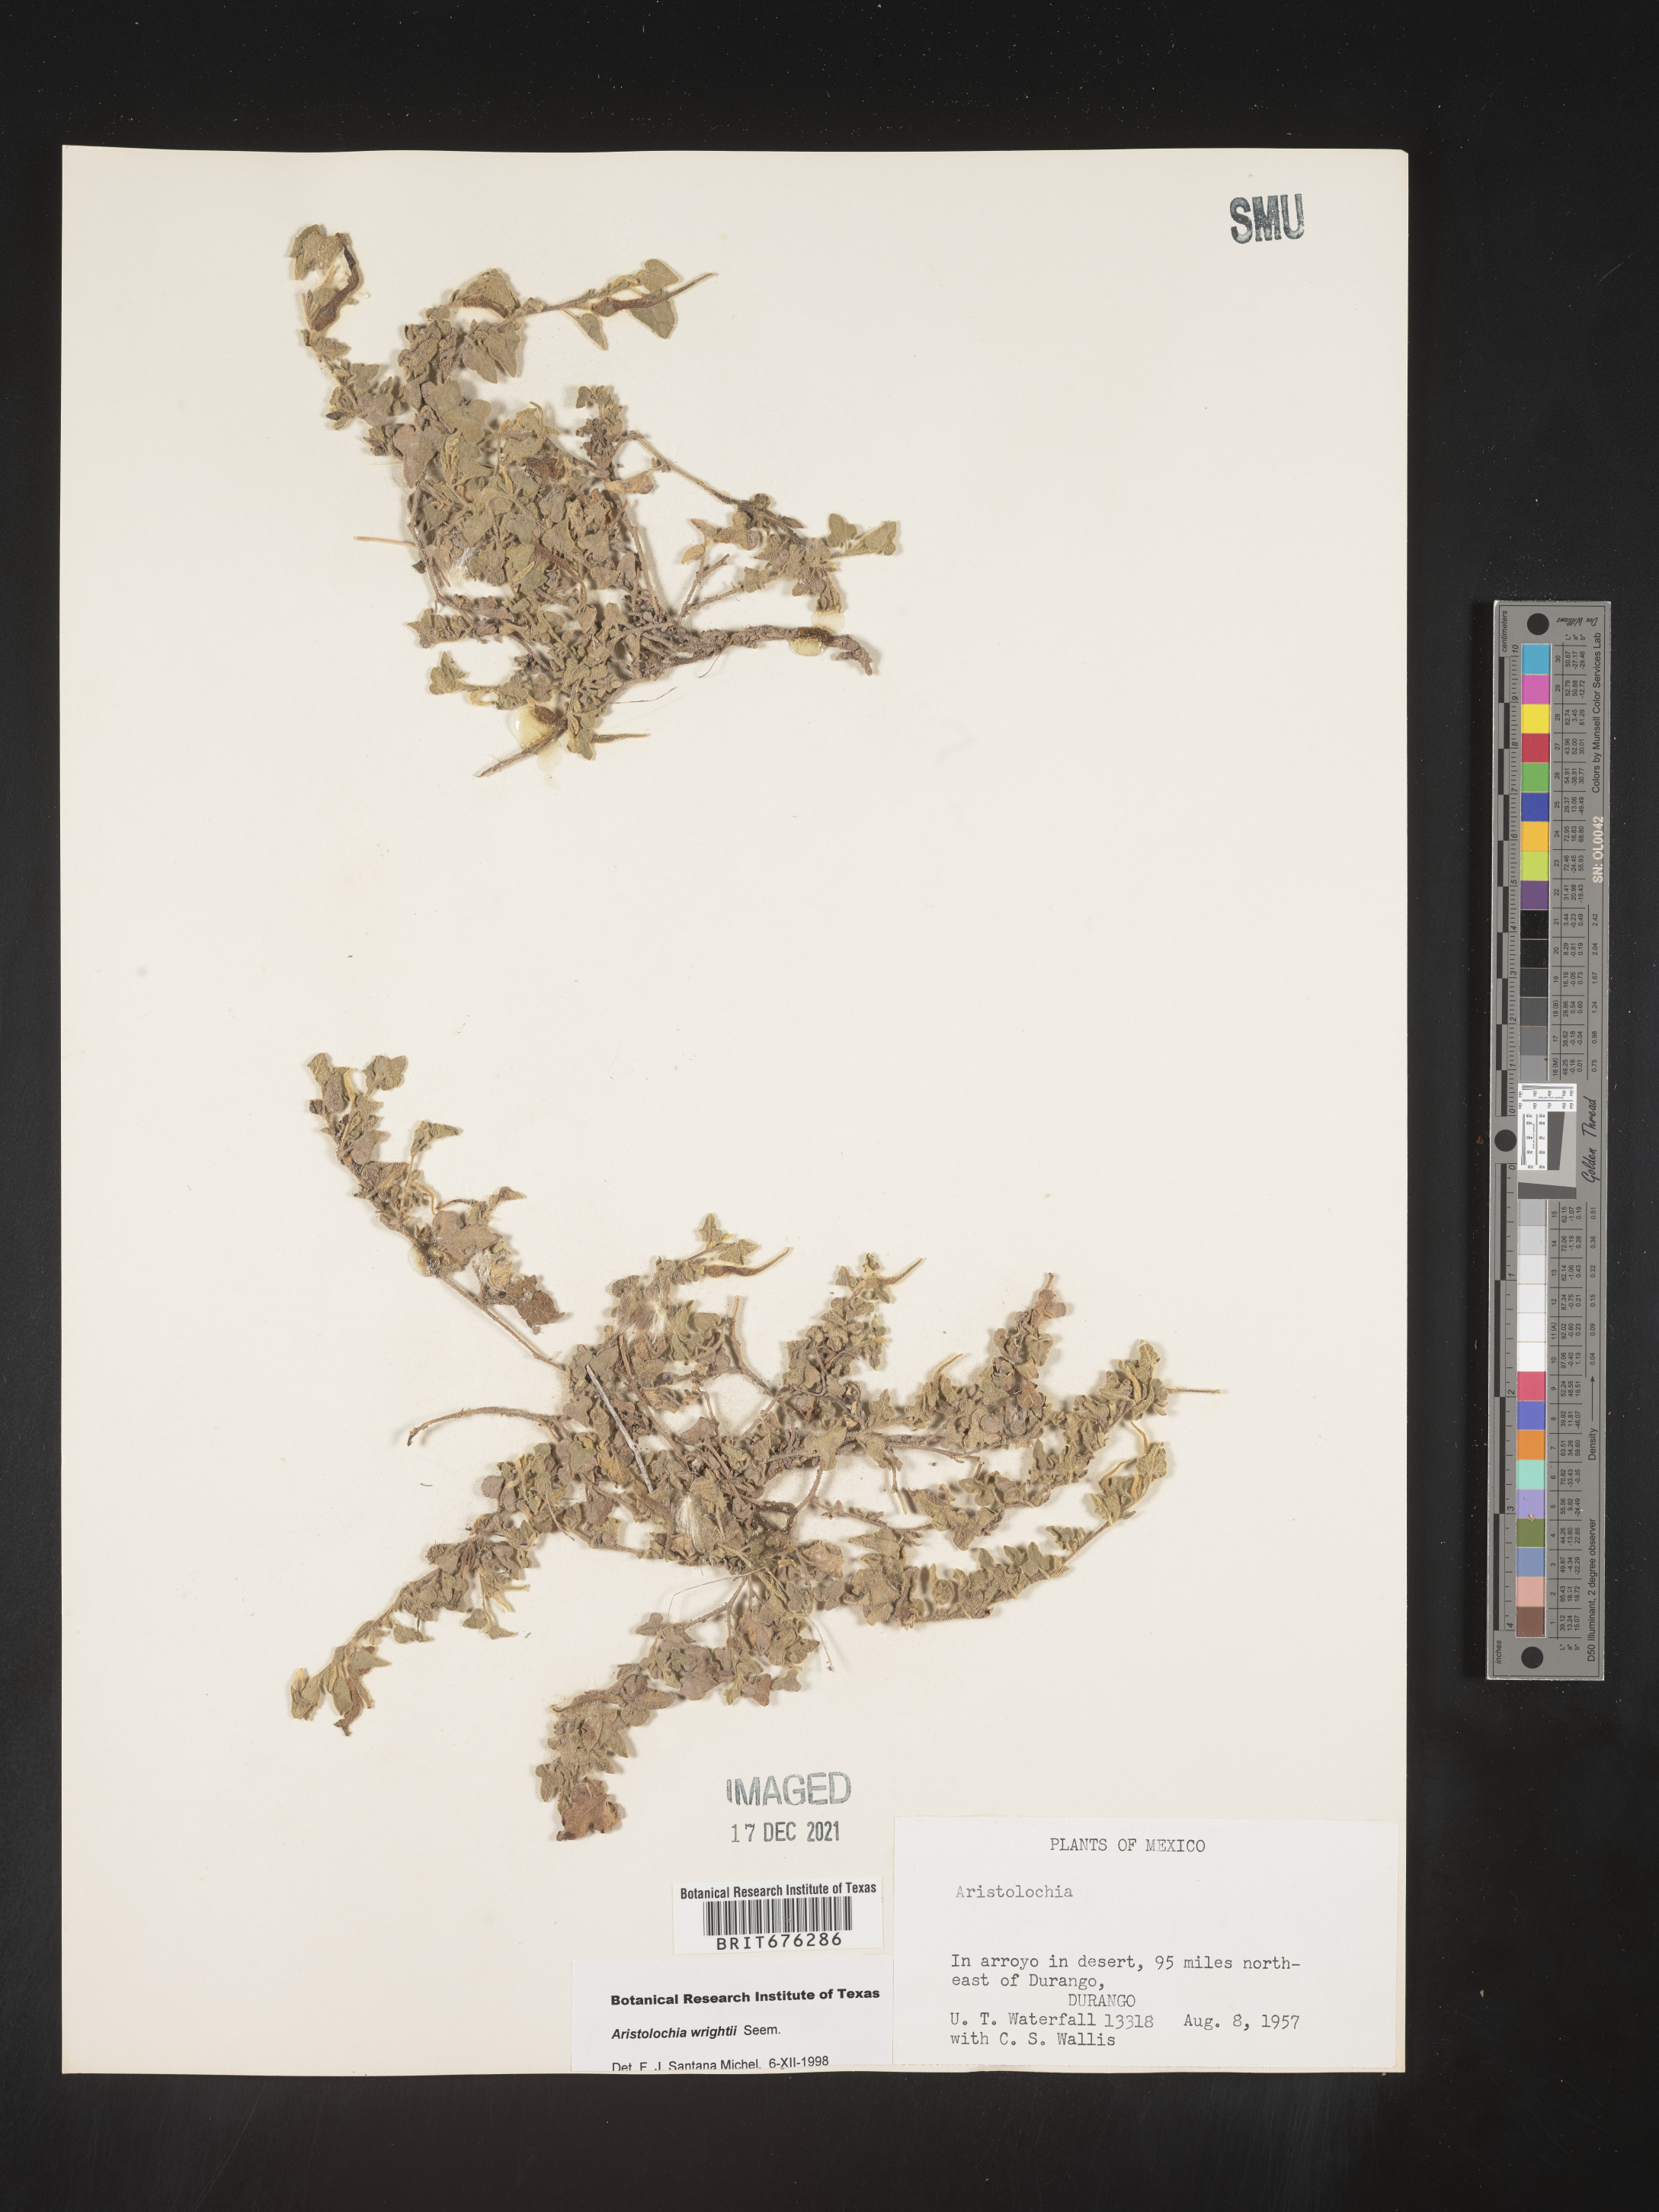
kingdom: Plantae
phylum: Tracheophyta
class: Magnoliopsida
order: Piperales
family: Aristolochiaceae
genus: Aristolochia
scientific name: Aristolochia
